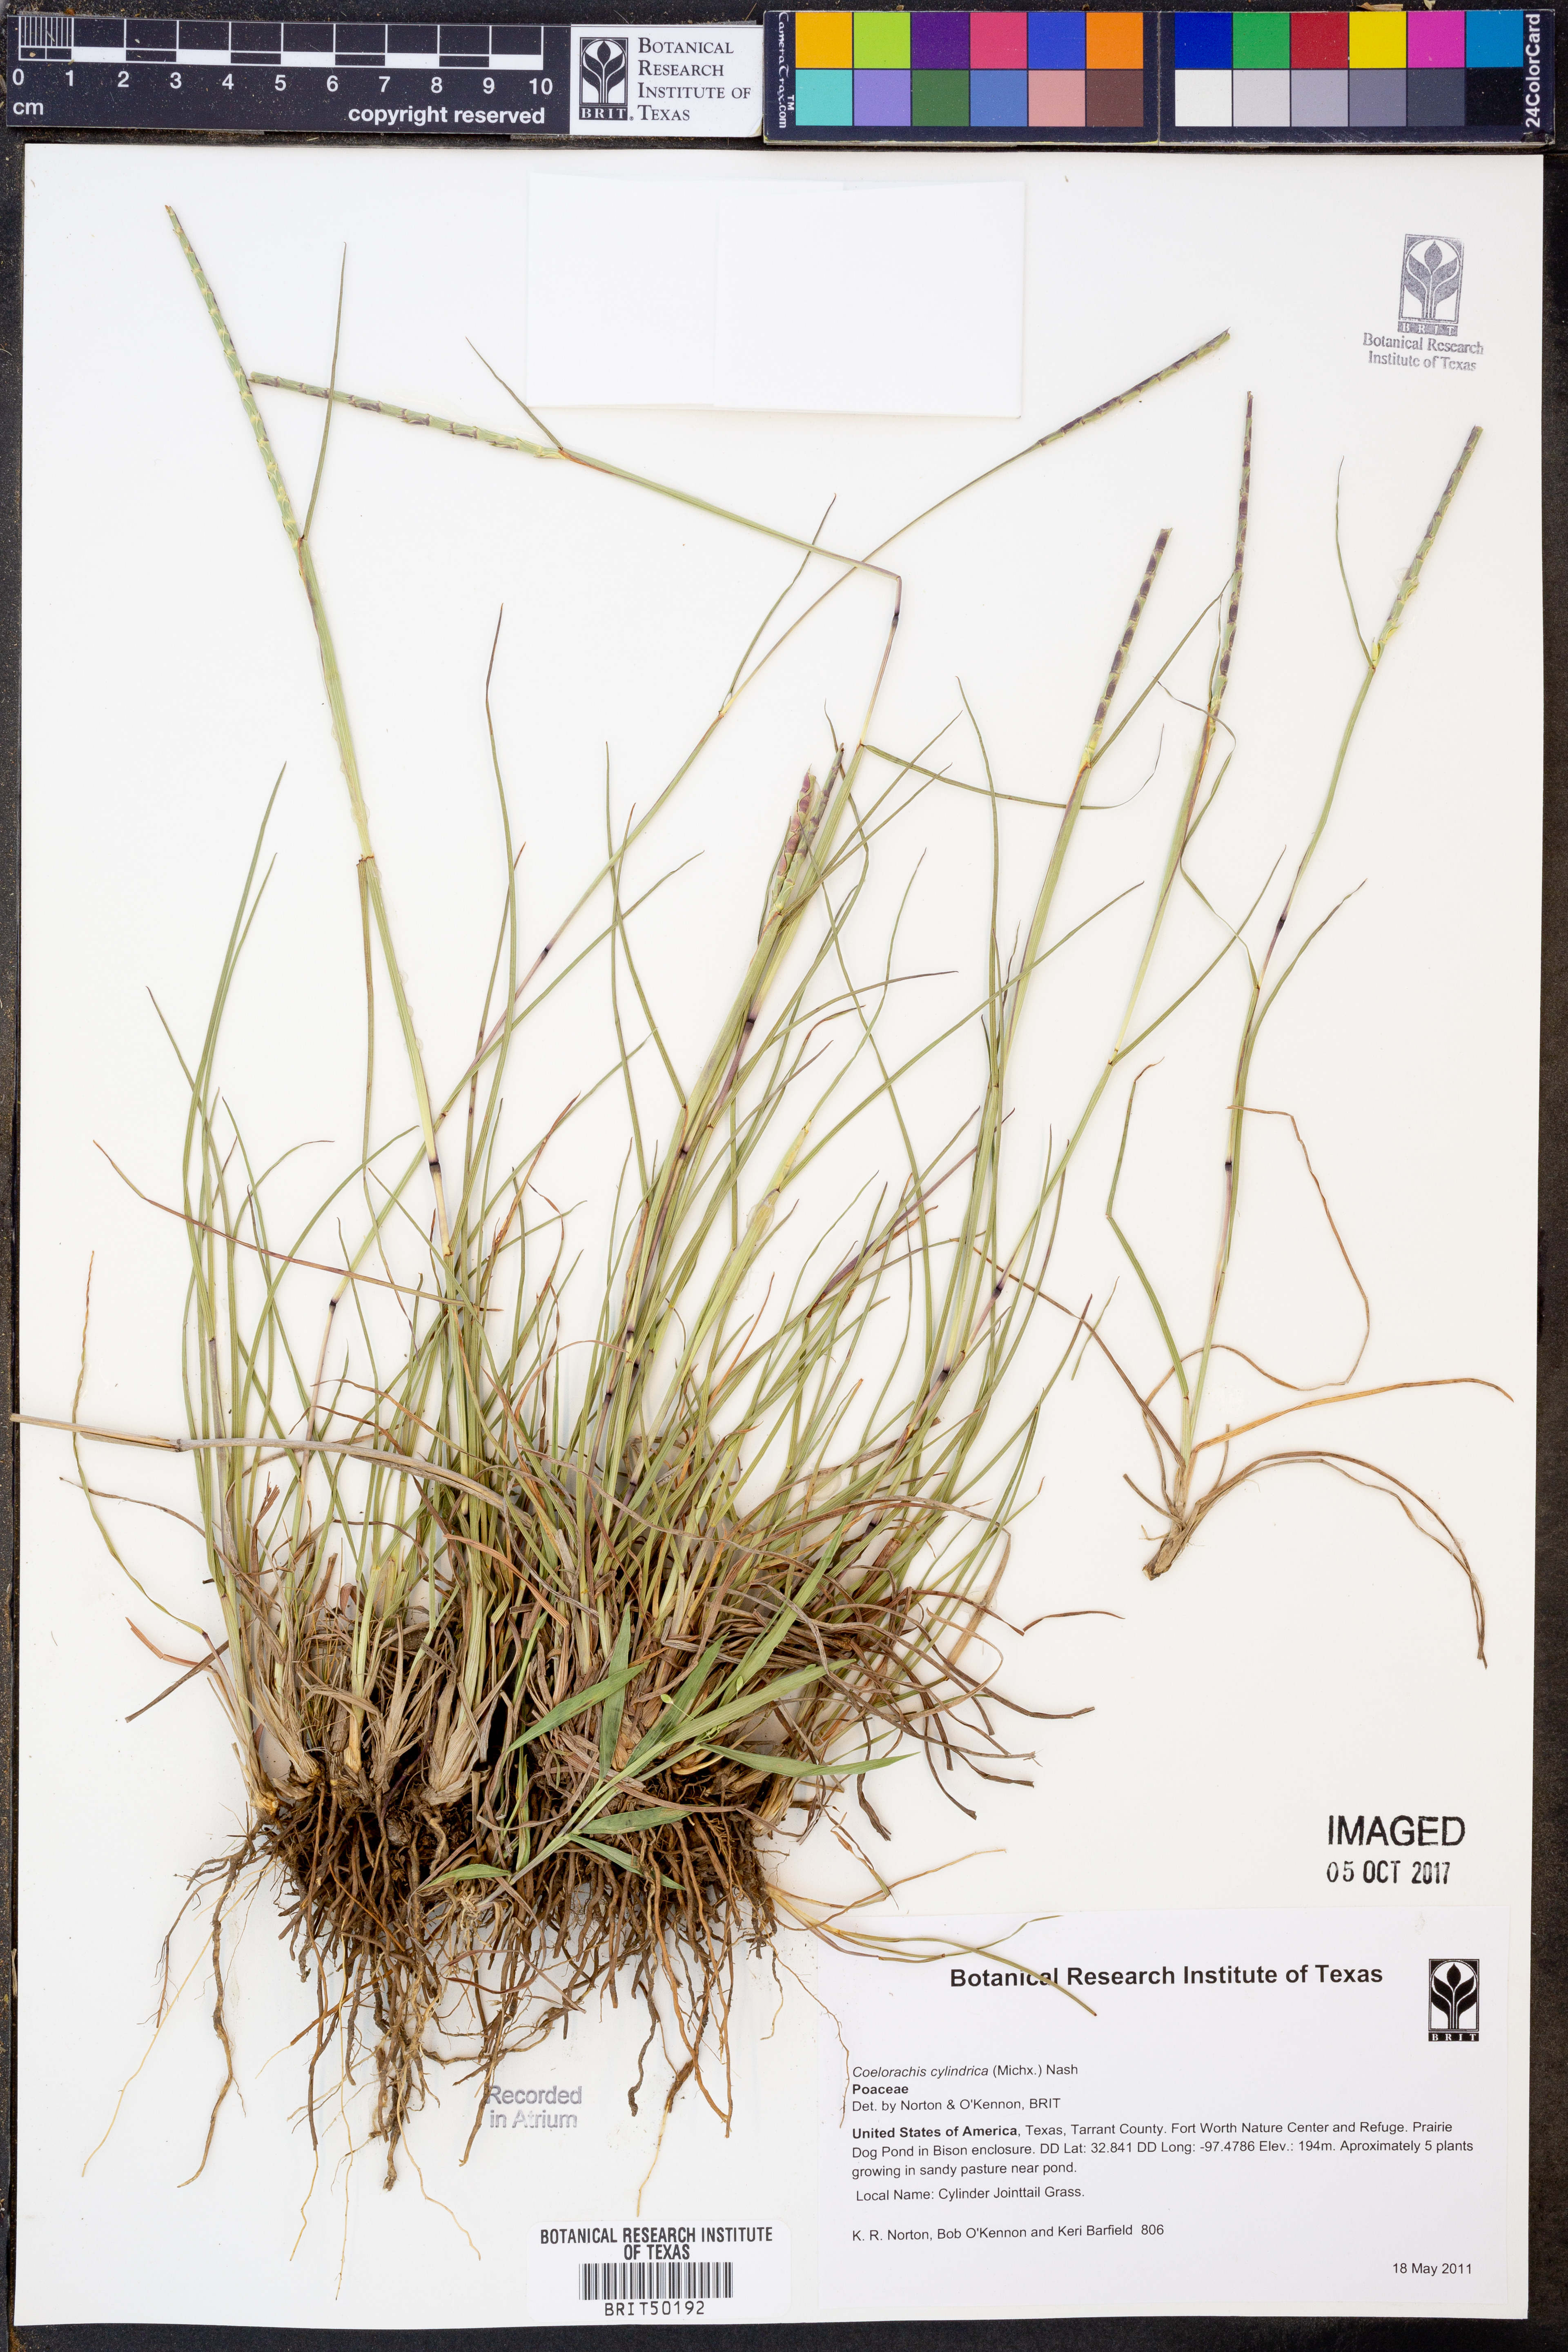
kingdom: Plantae
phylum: Tracheophyta
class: Liliopsida
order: Poales
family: Poaceae
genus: Rottboellia
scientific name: Rottboellia campestris
